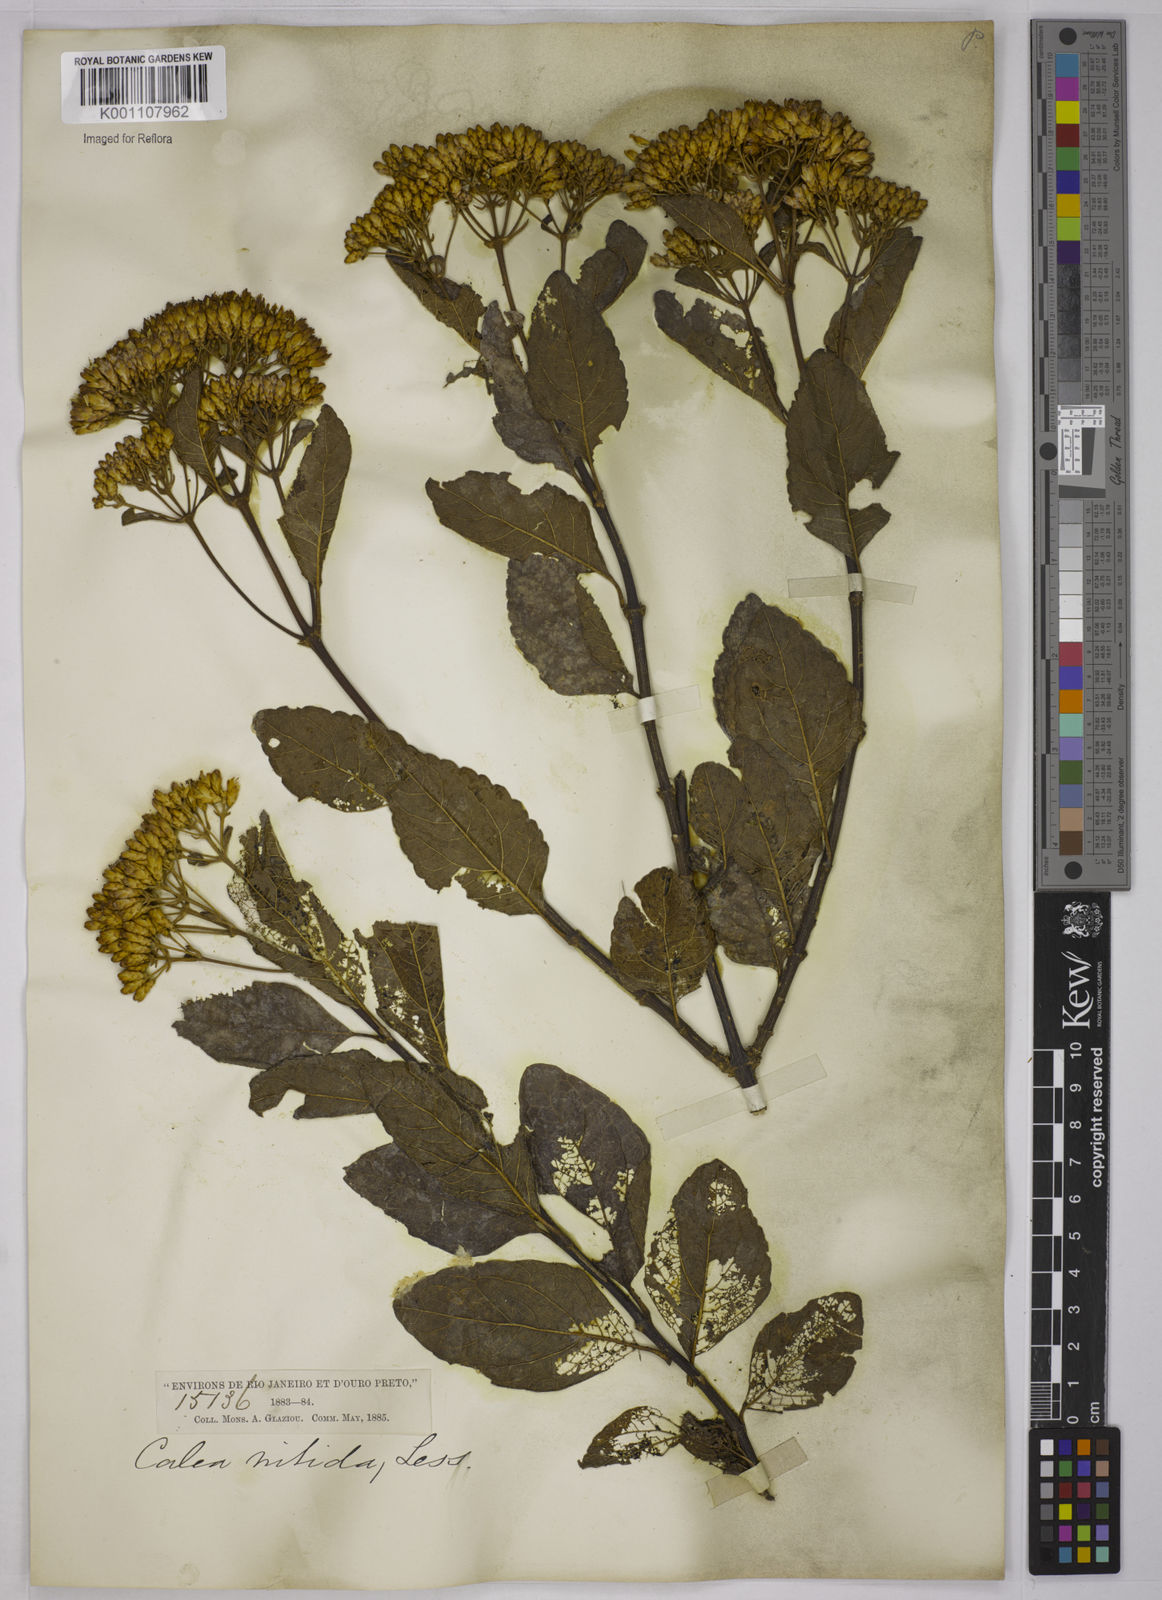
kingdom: Plantae
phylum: Tracheophyta
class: Magnoliopsida
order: Asterales
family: Asteraceae
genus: Calea
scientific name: Calea nitida
